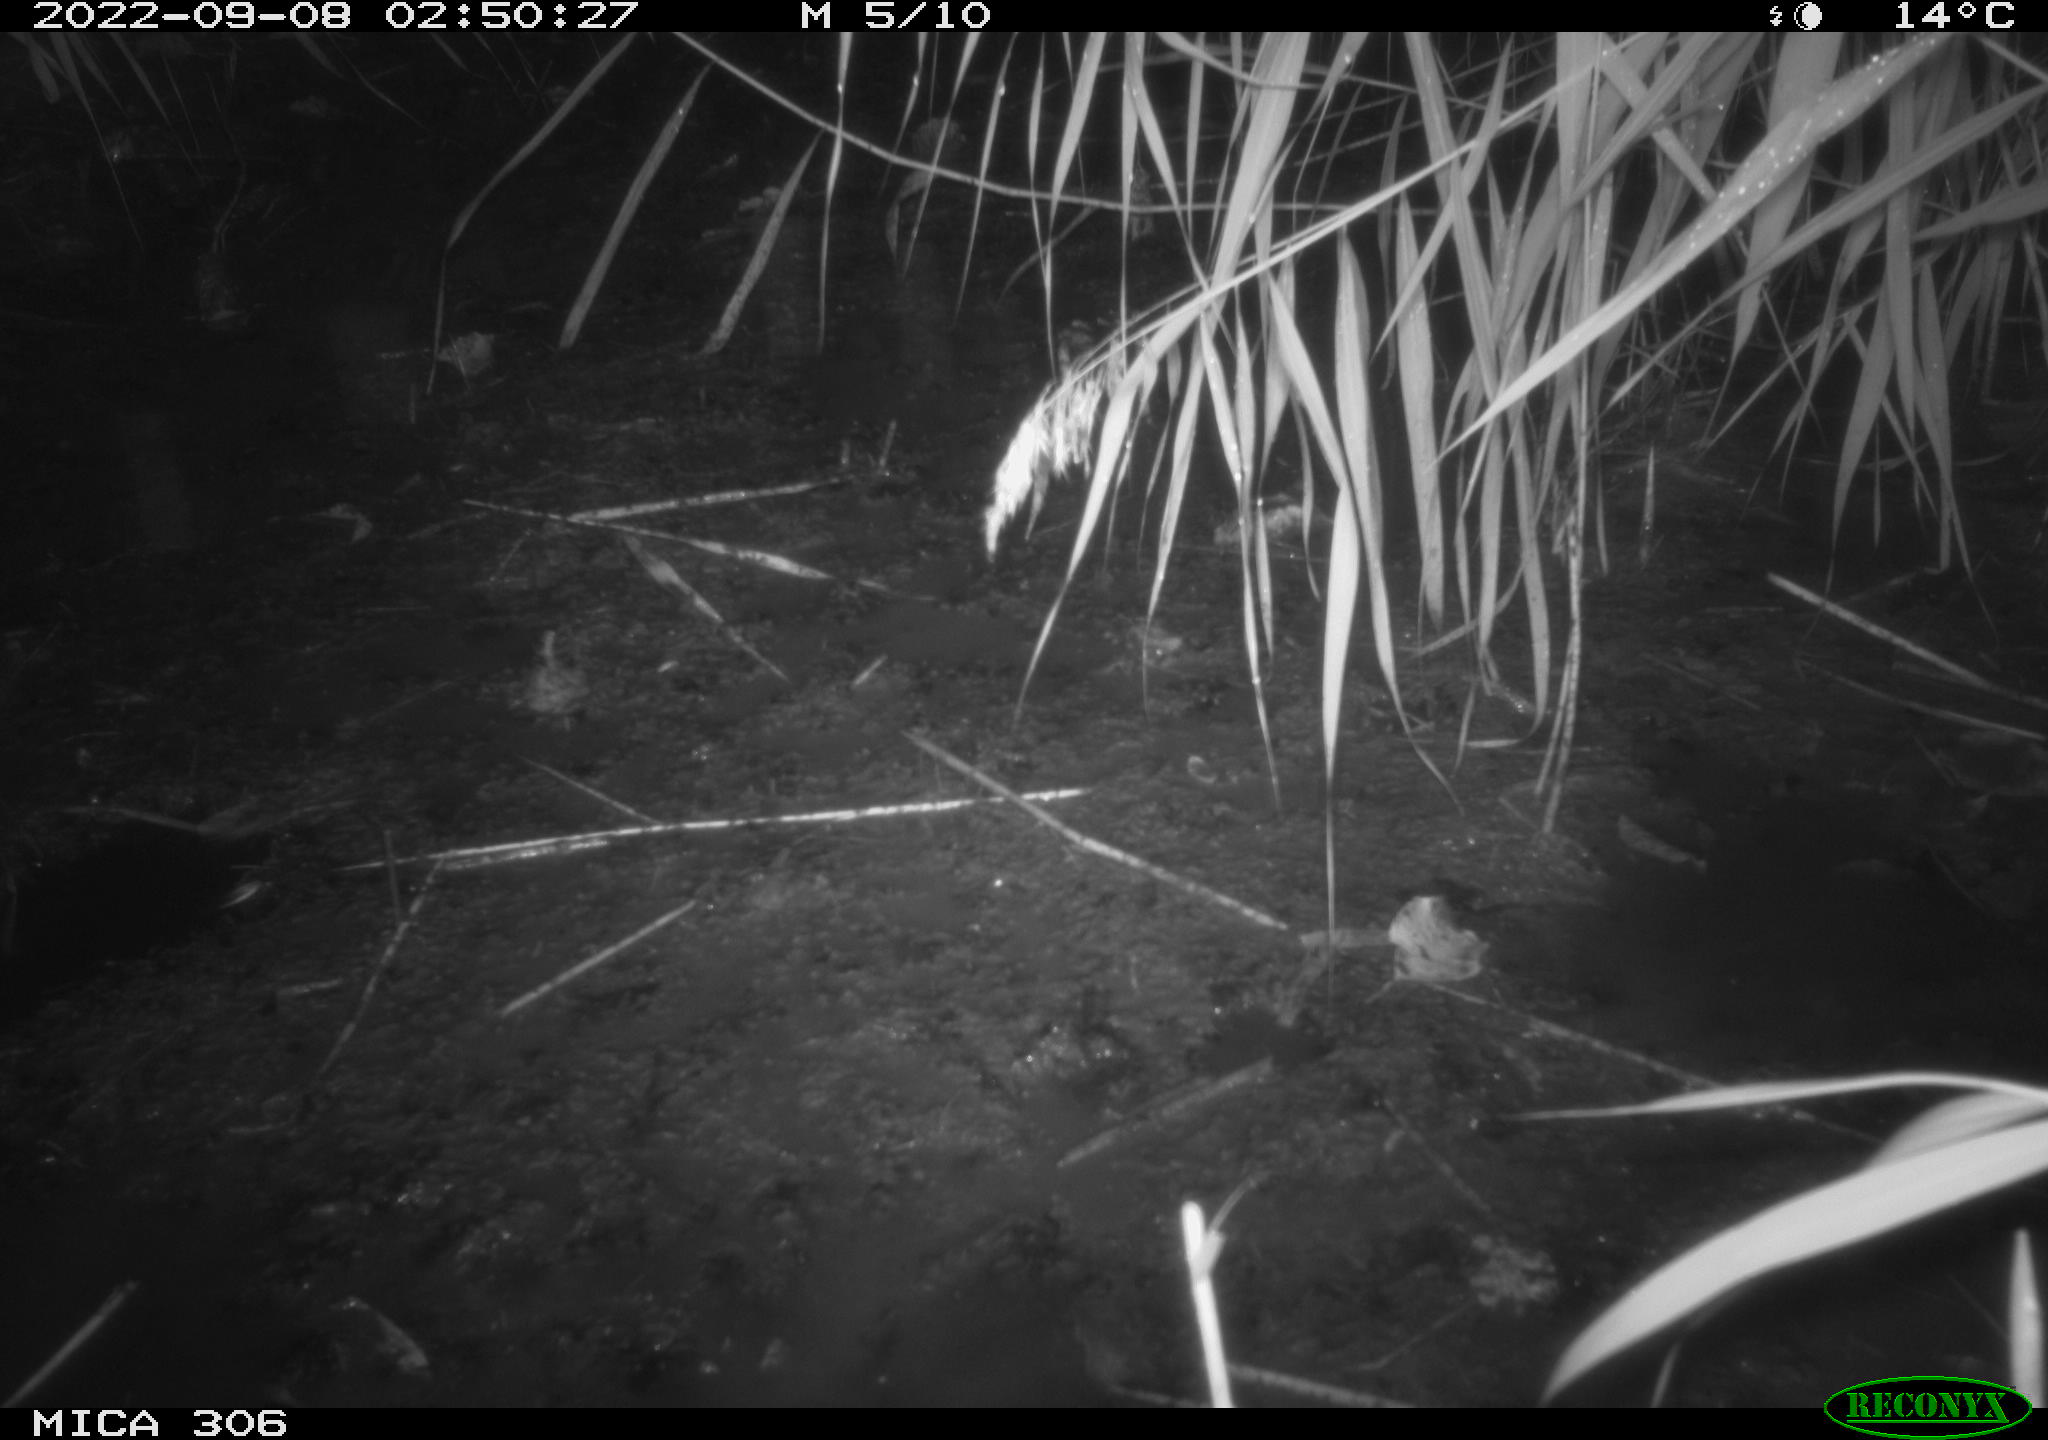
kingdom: Animalia
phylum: Chordata
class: Mammalia
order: Rodentia
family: Muridae
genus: Rattus
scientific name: Rattus norvegicus
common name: Brown rat
